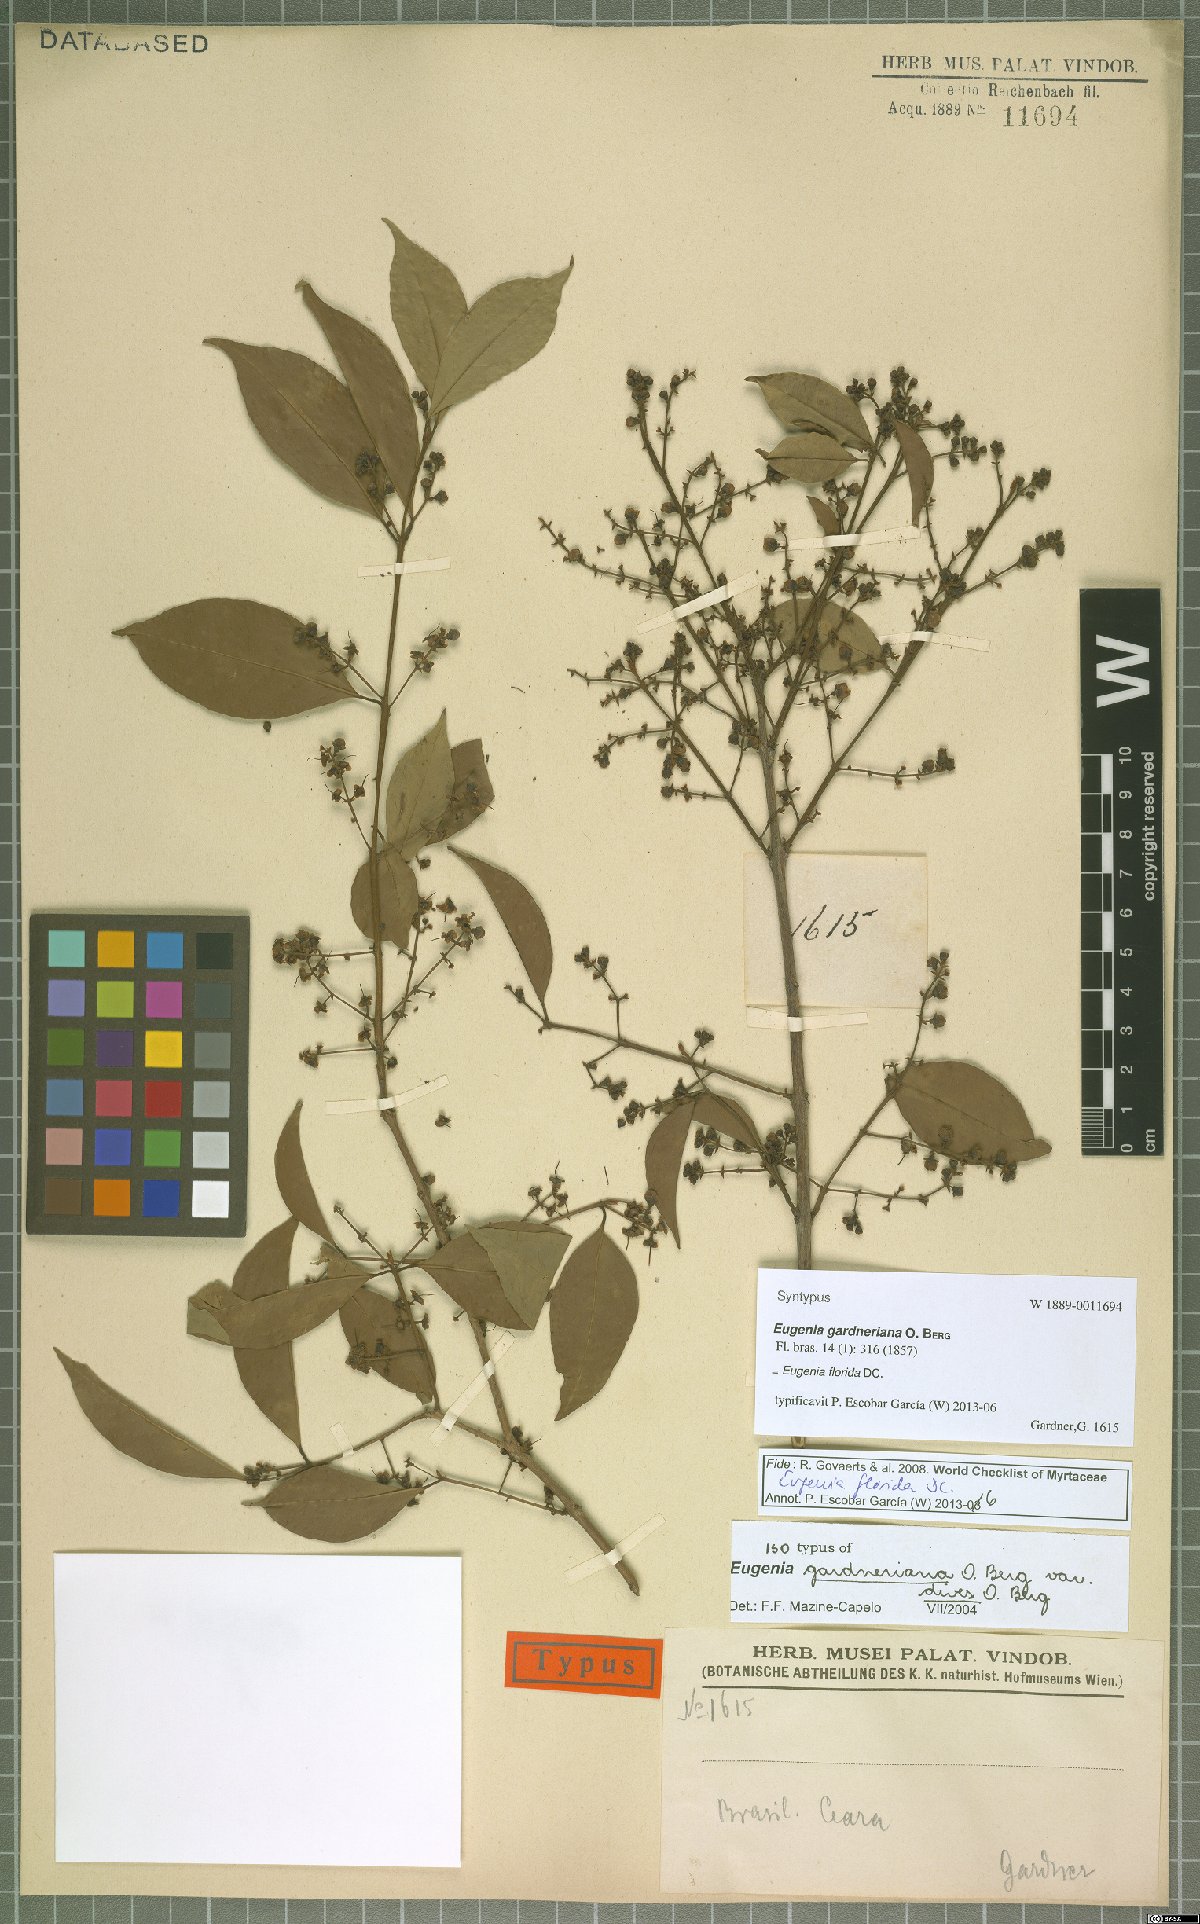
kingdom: Plantae
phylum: Tracheophyta
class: Magnoliopsida
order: Myrtales
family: Myrtaceae
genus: Eugenia
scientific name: Eugenia florida
